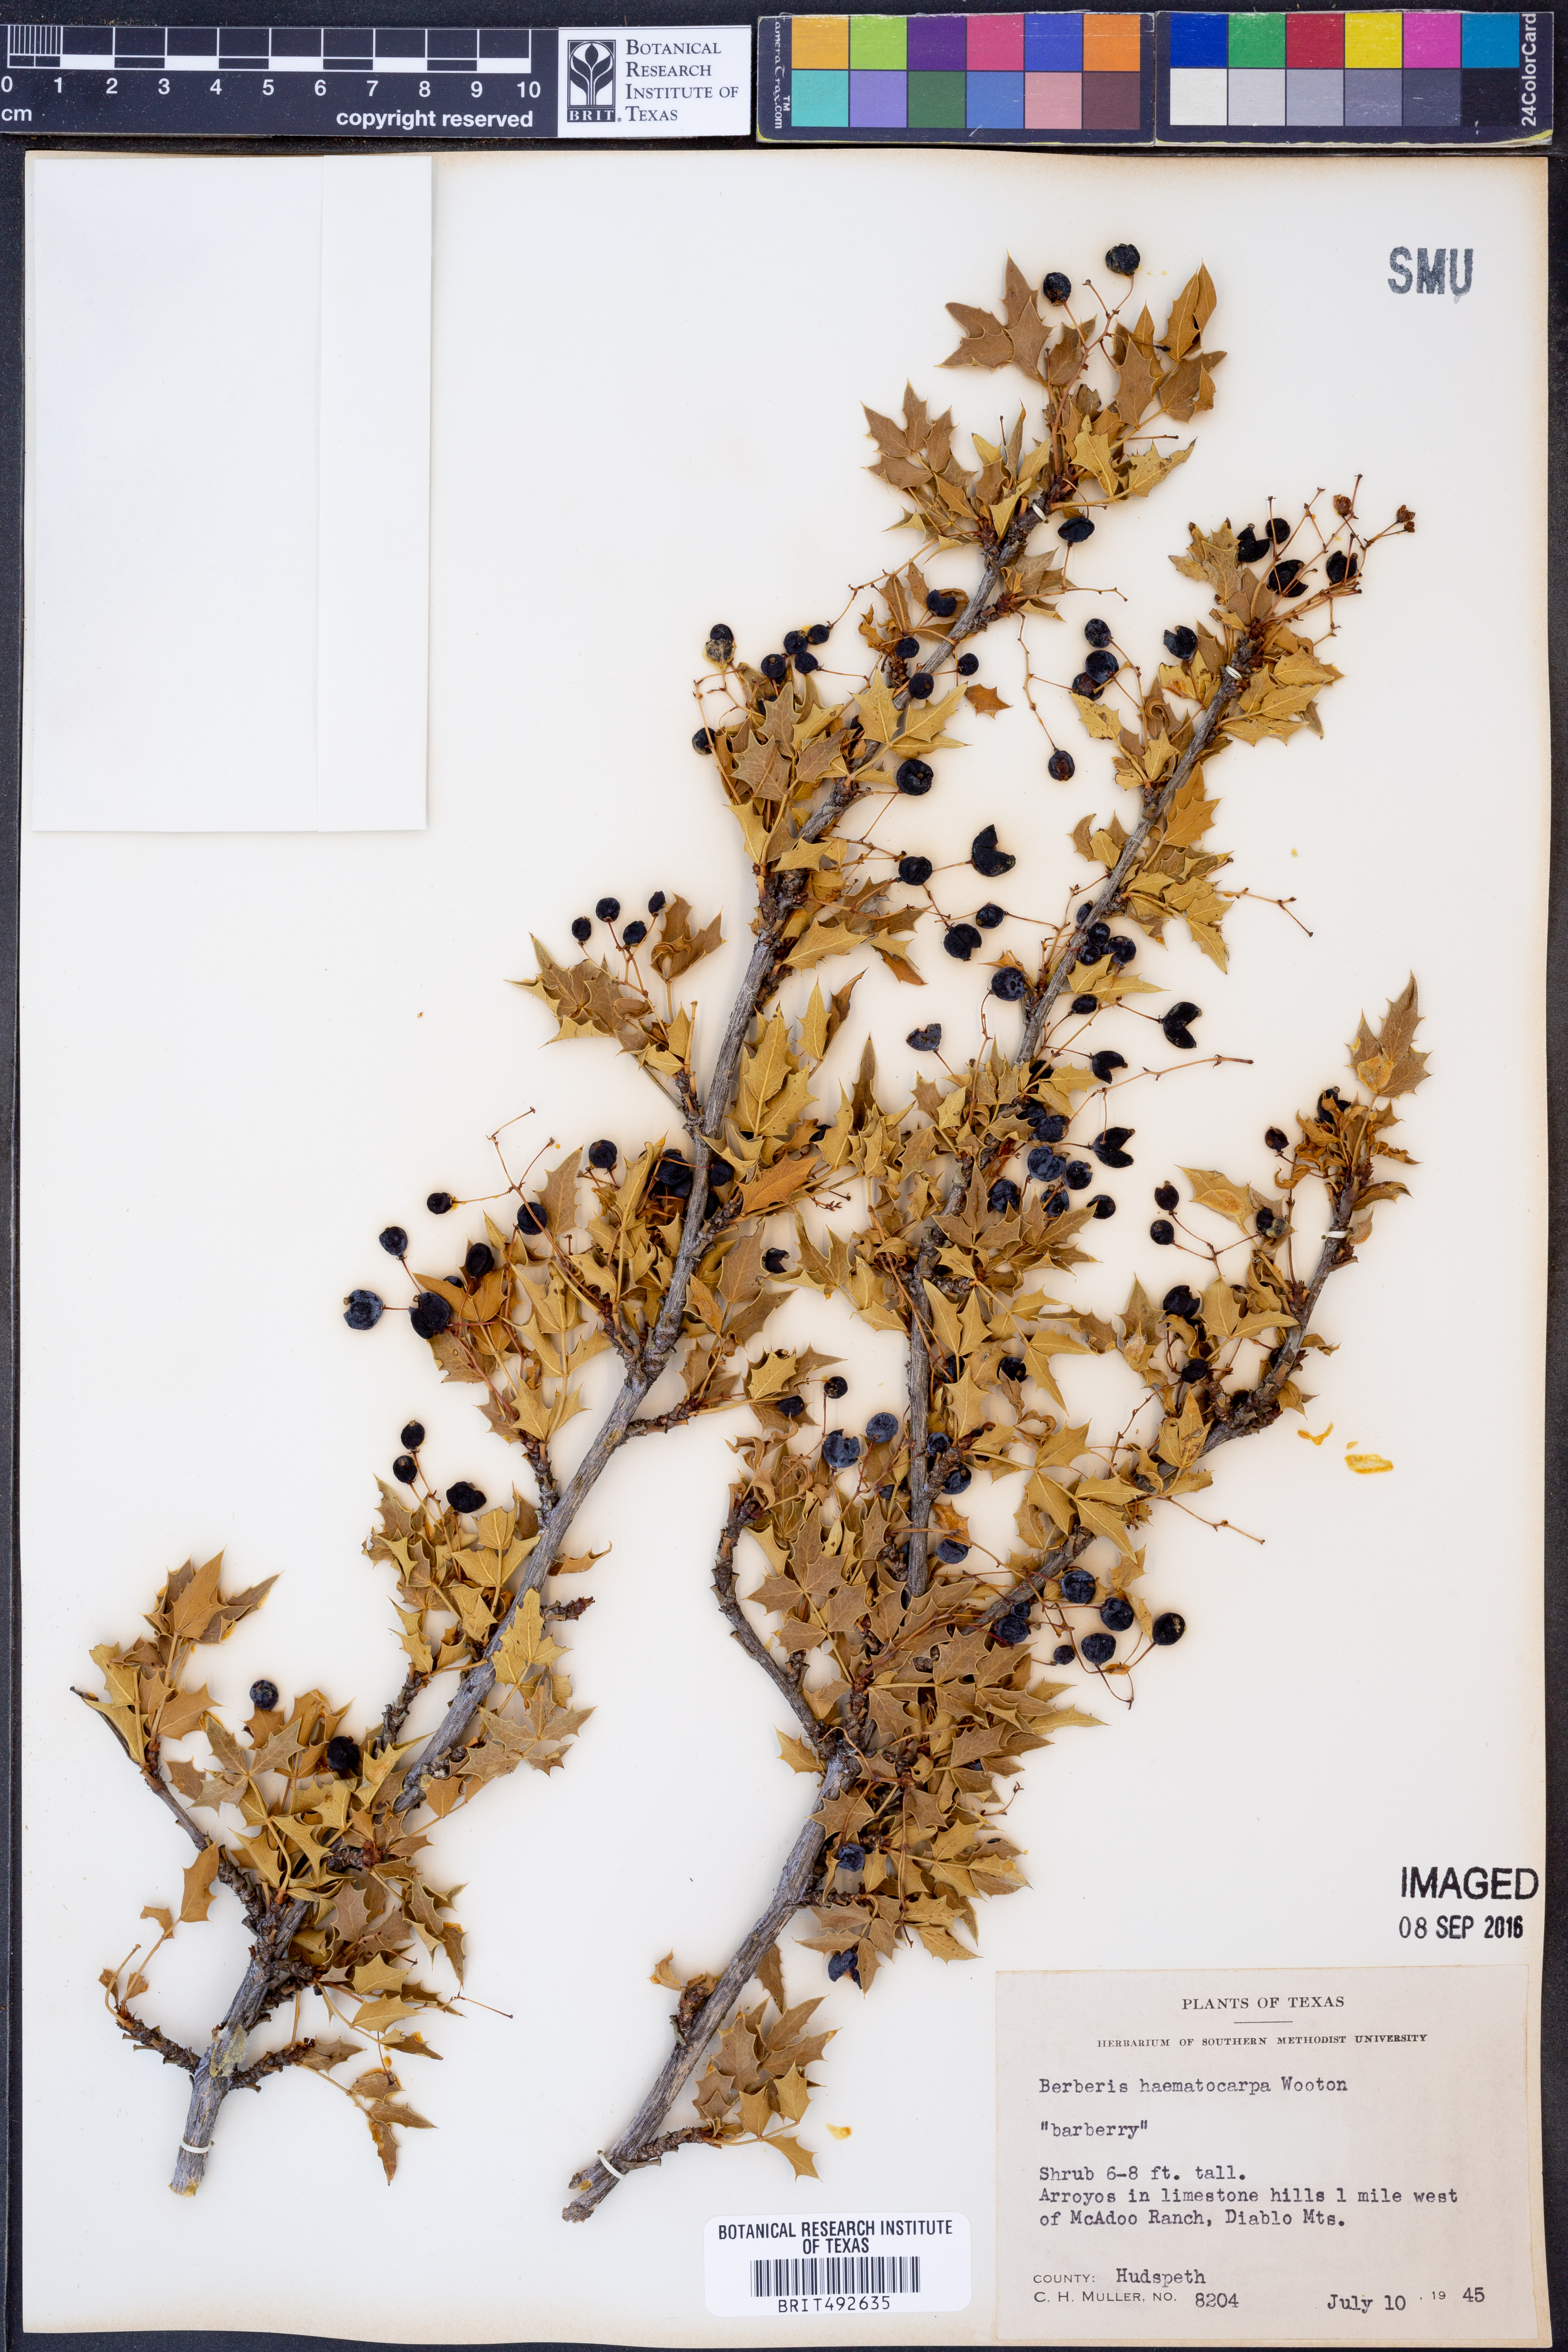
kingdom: Plantae
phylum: Tracheophyta
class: Magnoliopsida
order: Ranunculales
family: Berberidaceae
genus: Alloberberis
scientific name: Alloberberis haematocarpa
